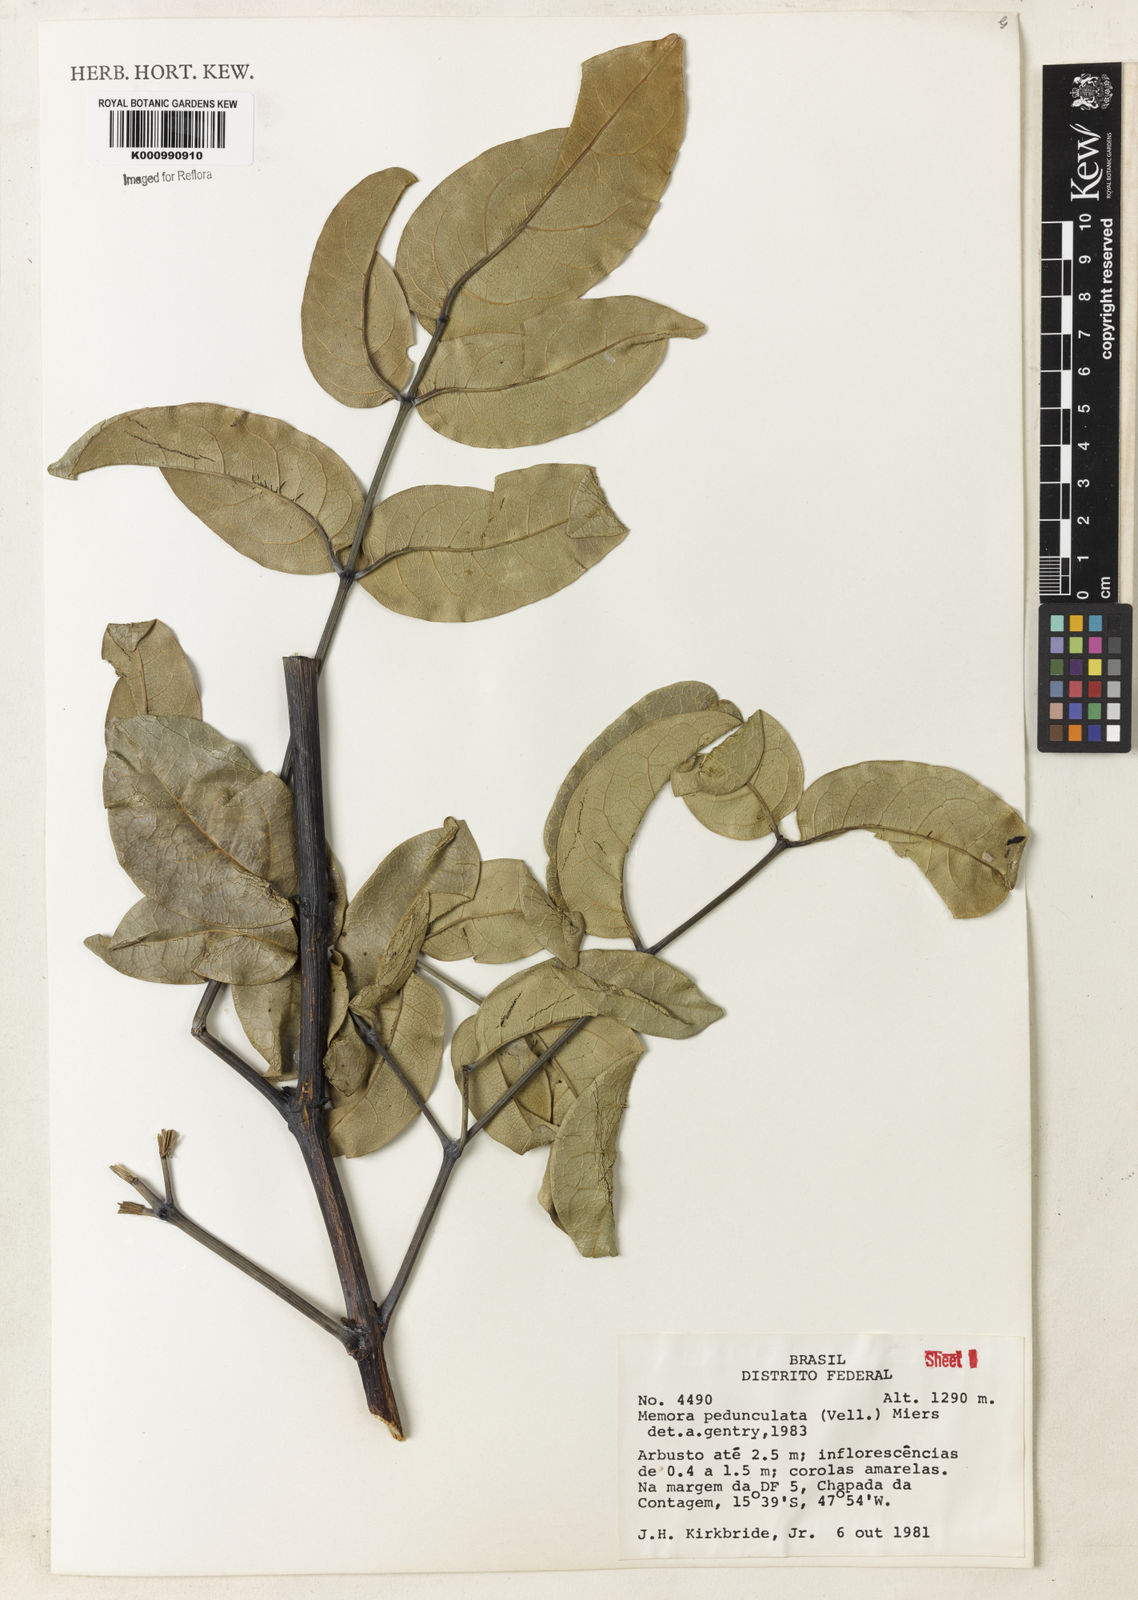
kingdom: Plantae
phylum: Tracheophyta
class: Magnoliopsida
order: Lamiales
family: Bignoniaceae
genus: Adenocalymma
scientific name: Adenocalymma pedunculatum
